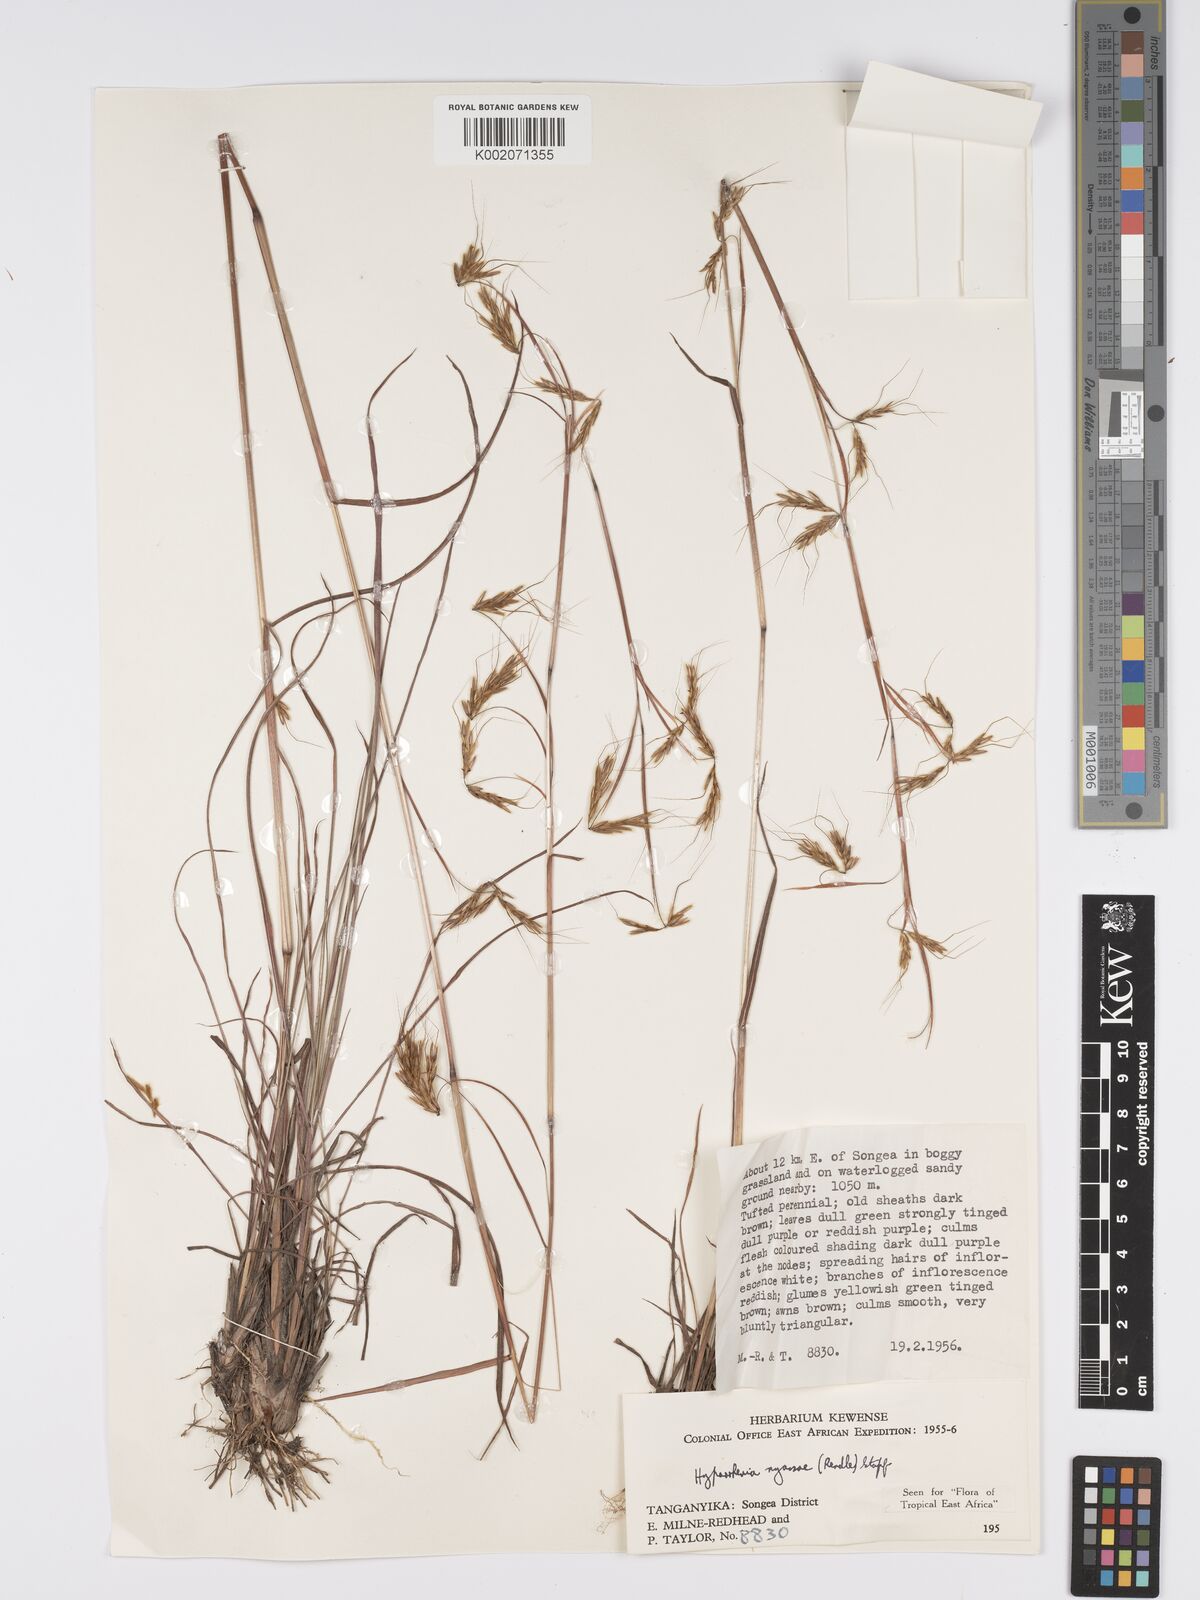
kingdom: Plantae
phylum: Tracheophyta
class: Liliopsida
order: Poales
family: Poaceae
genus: Hyparrhenia
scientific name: Hyparrhenia nyassae
